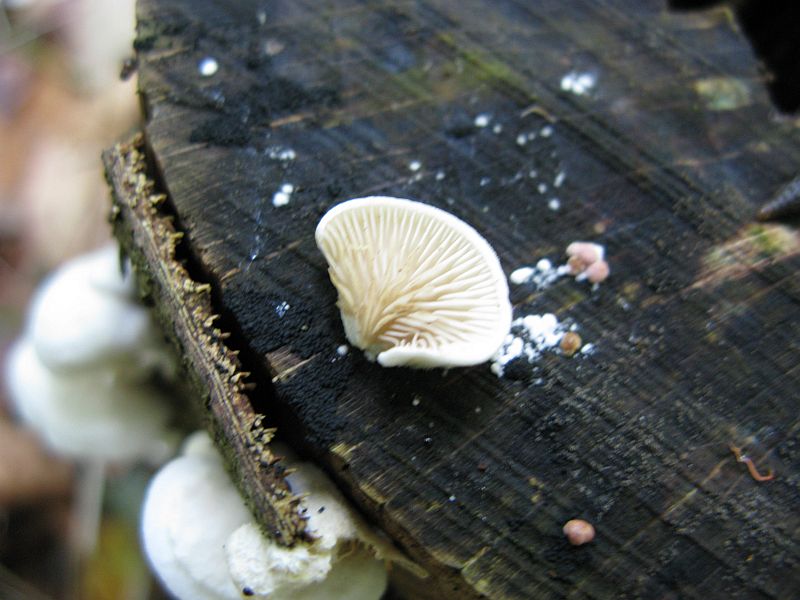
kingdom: Fungi
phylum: Basidiomycota
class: Agaricomycetes
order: Agaricales
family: Crepidotaceae
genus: Crepidotus
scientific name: Crepidotus caspari
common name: Lundells muslingesvamp
